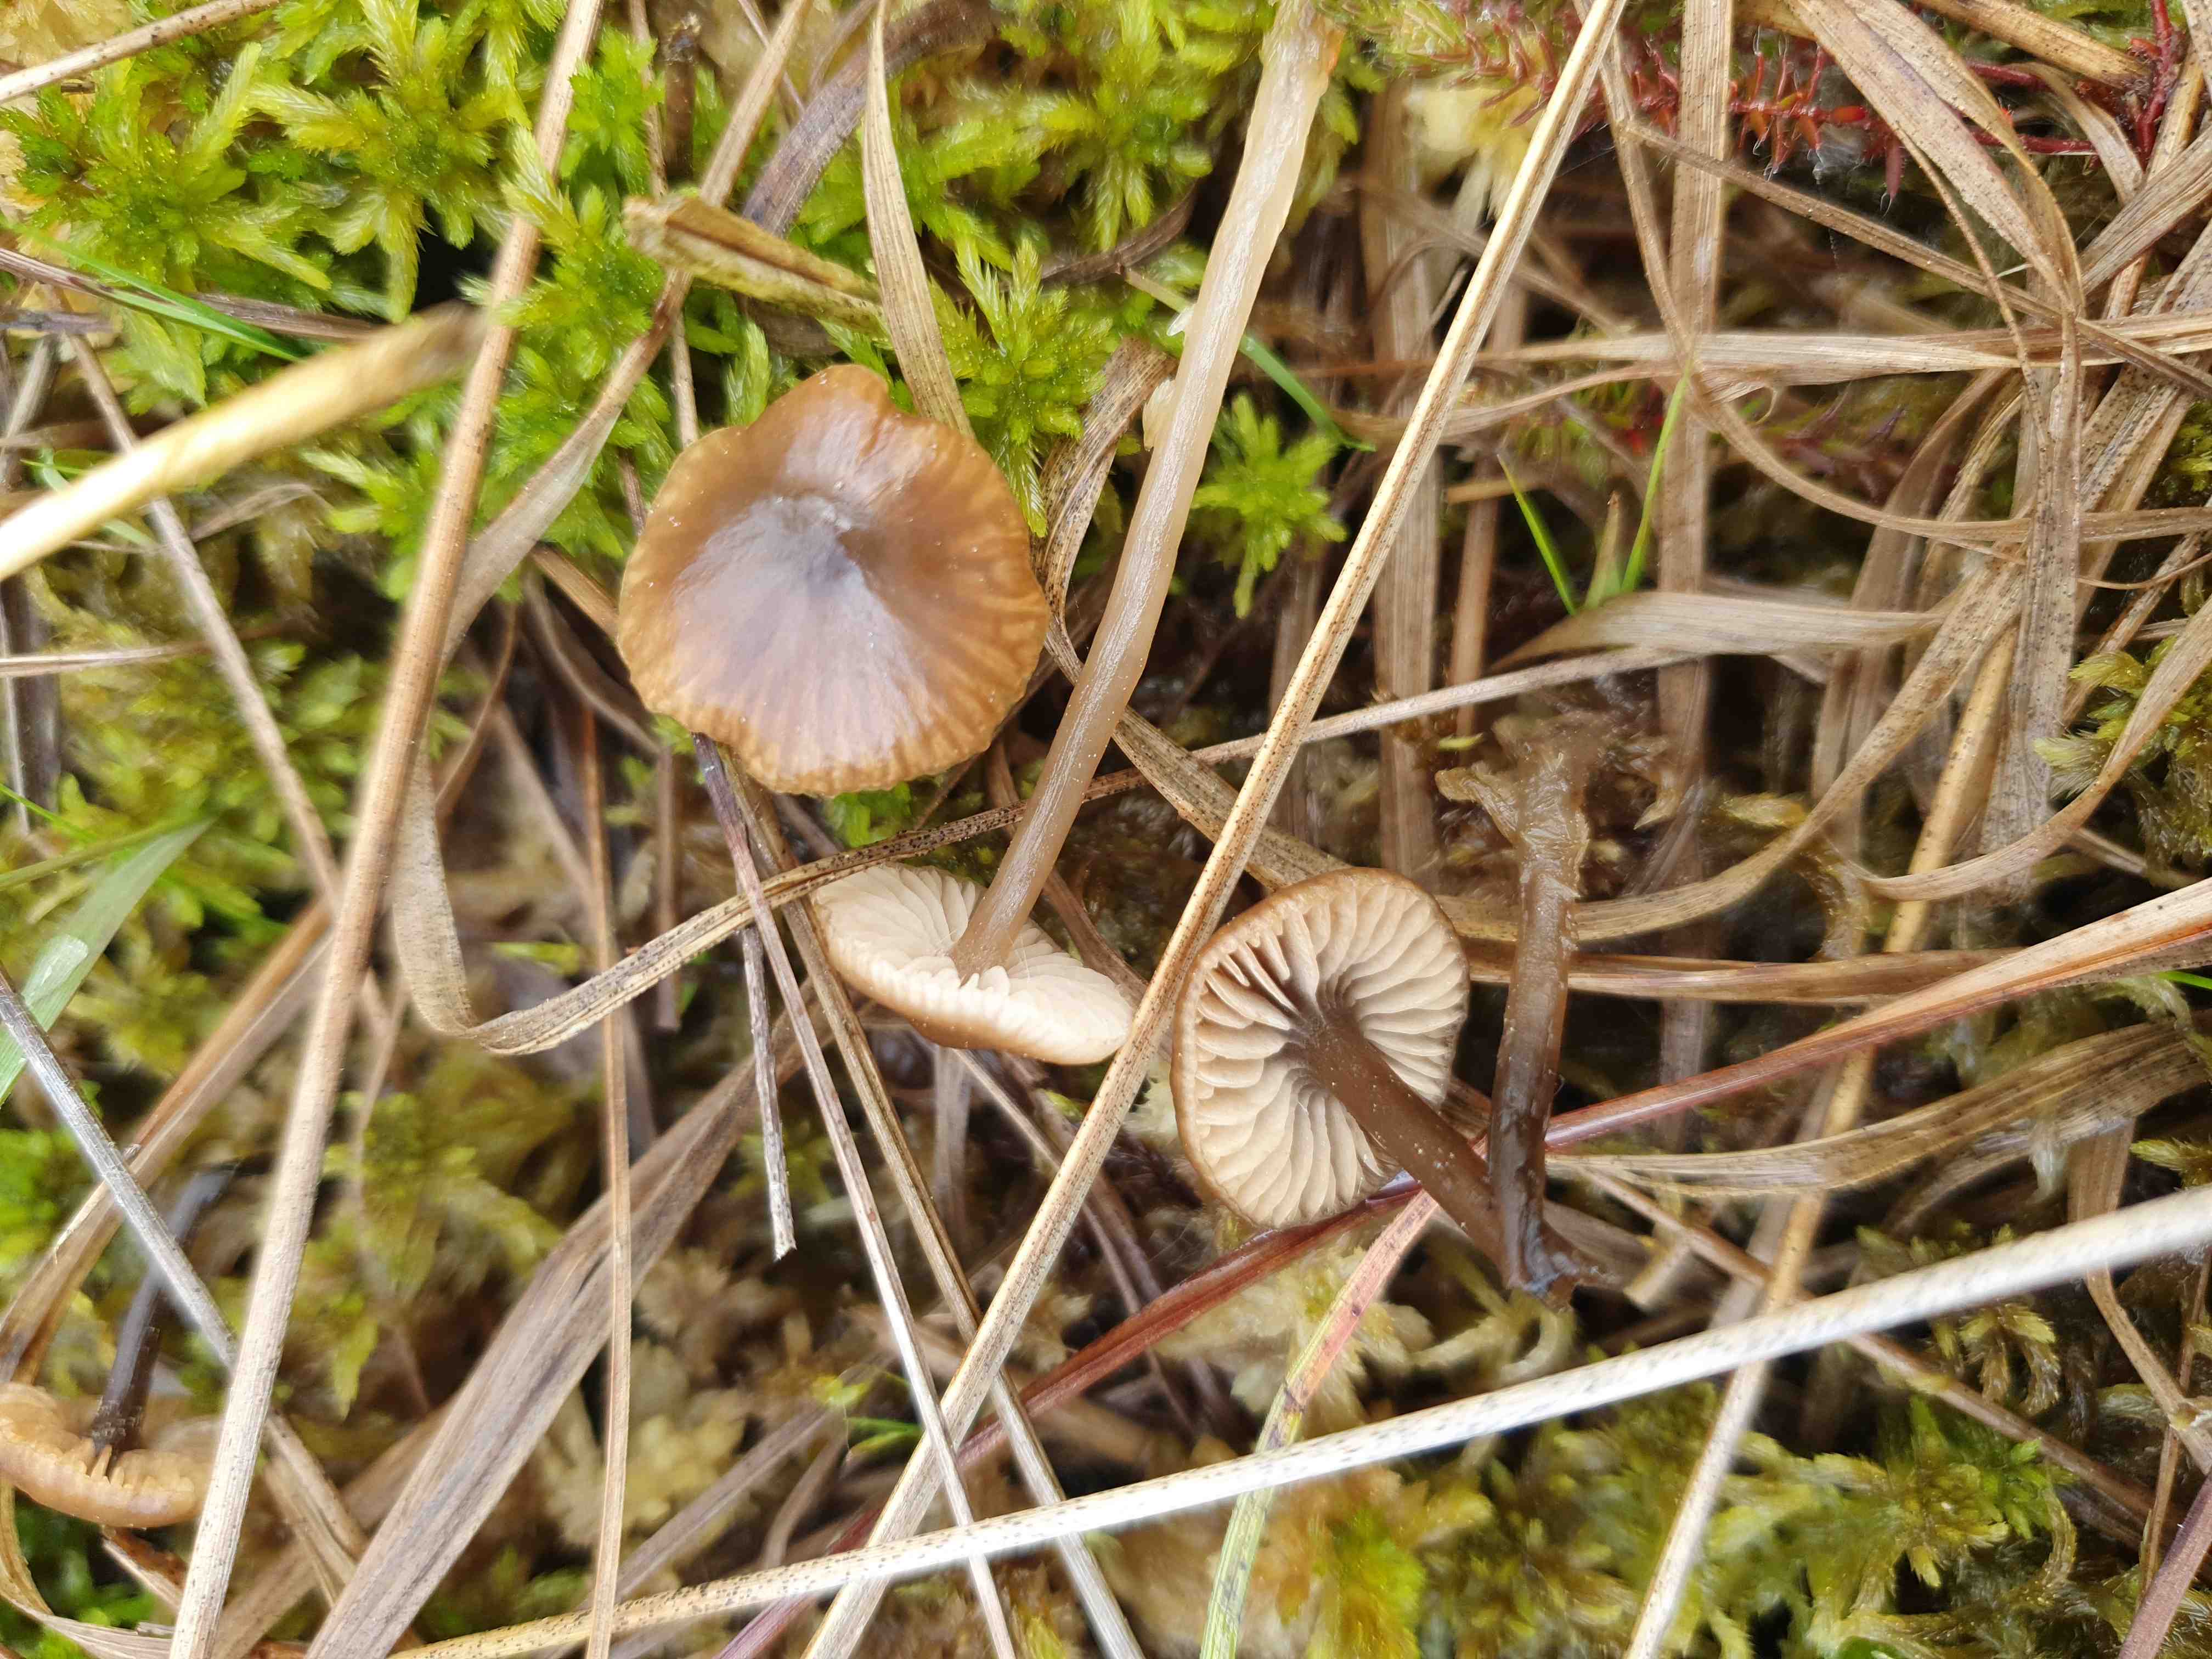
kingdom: Fungi
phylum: Basidiomycota
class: Agaricomycetes
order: Agaricales
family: Lyophyllaceae
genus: Sphagnurus
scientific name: Sphagnurus paluster
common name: tørvemos-gråblad
